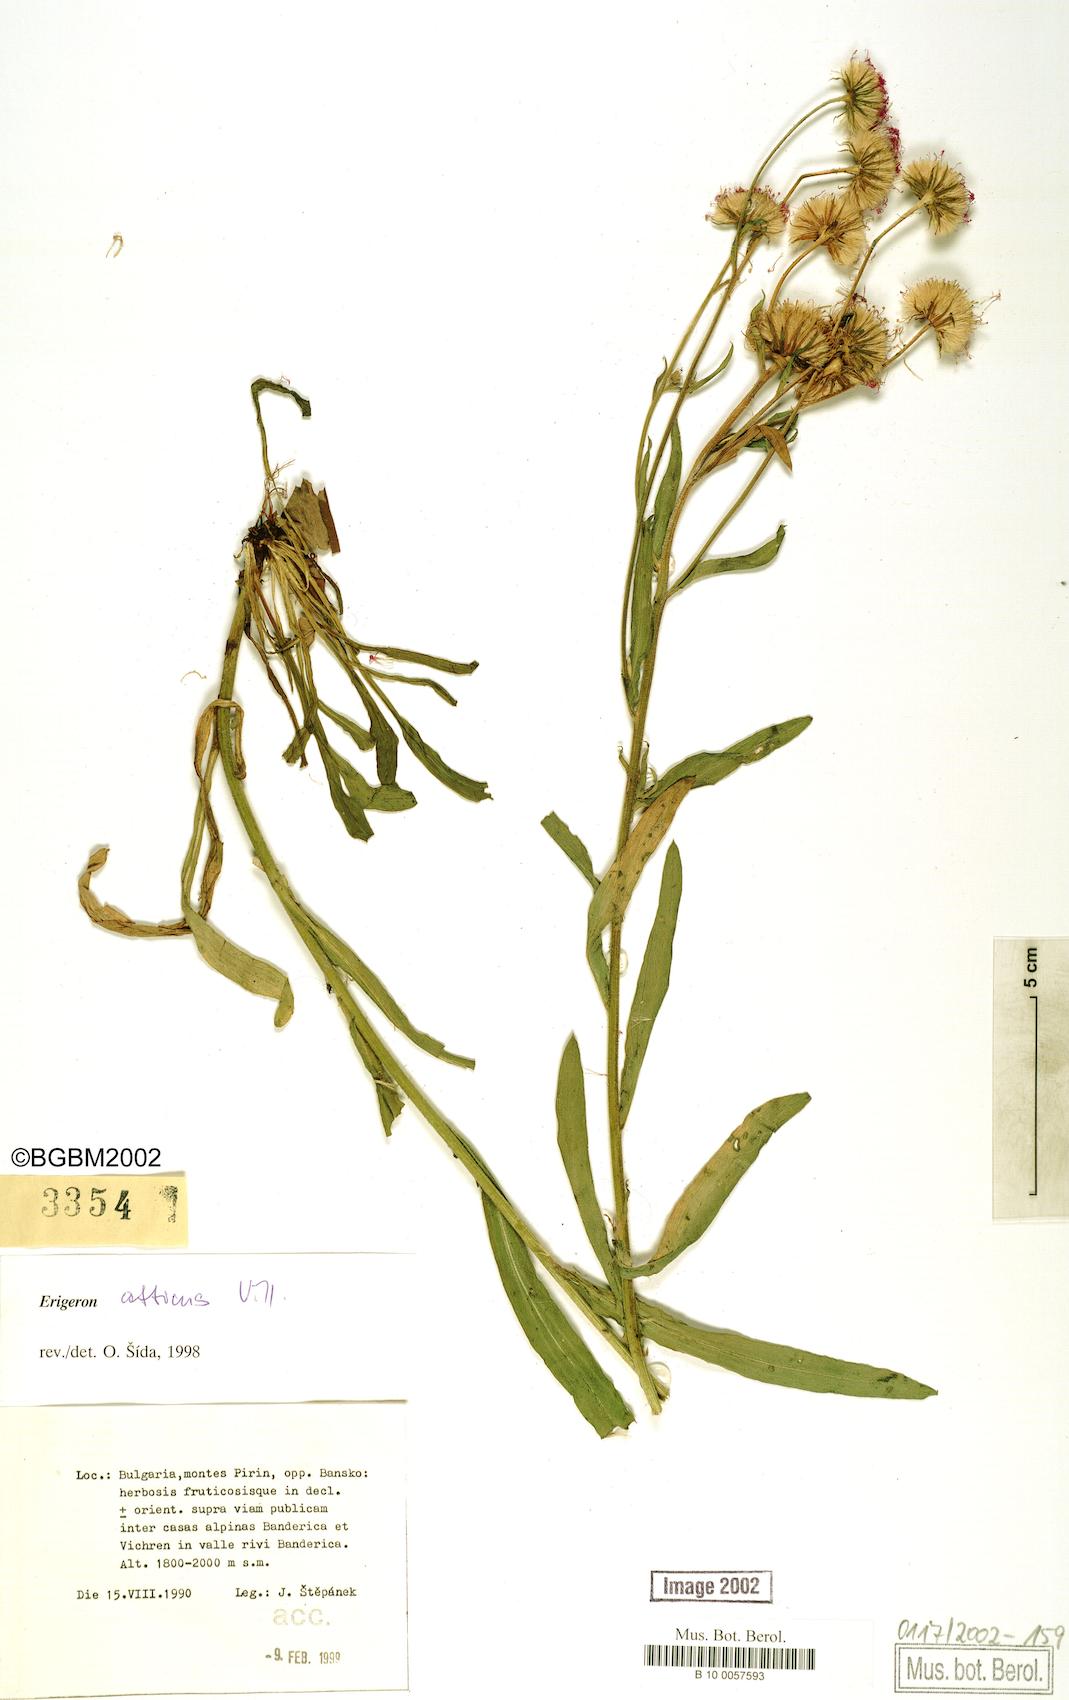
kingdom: Plantae
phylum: Tracheophyta
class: Magnoliopsida
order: Asterales
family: Asteraceae
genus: Erigeron
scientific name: Erigeron atticus
